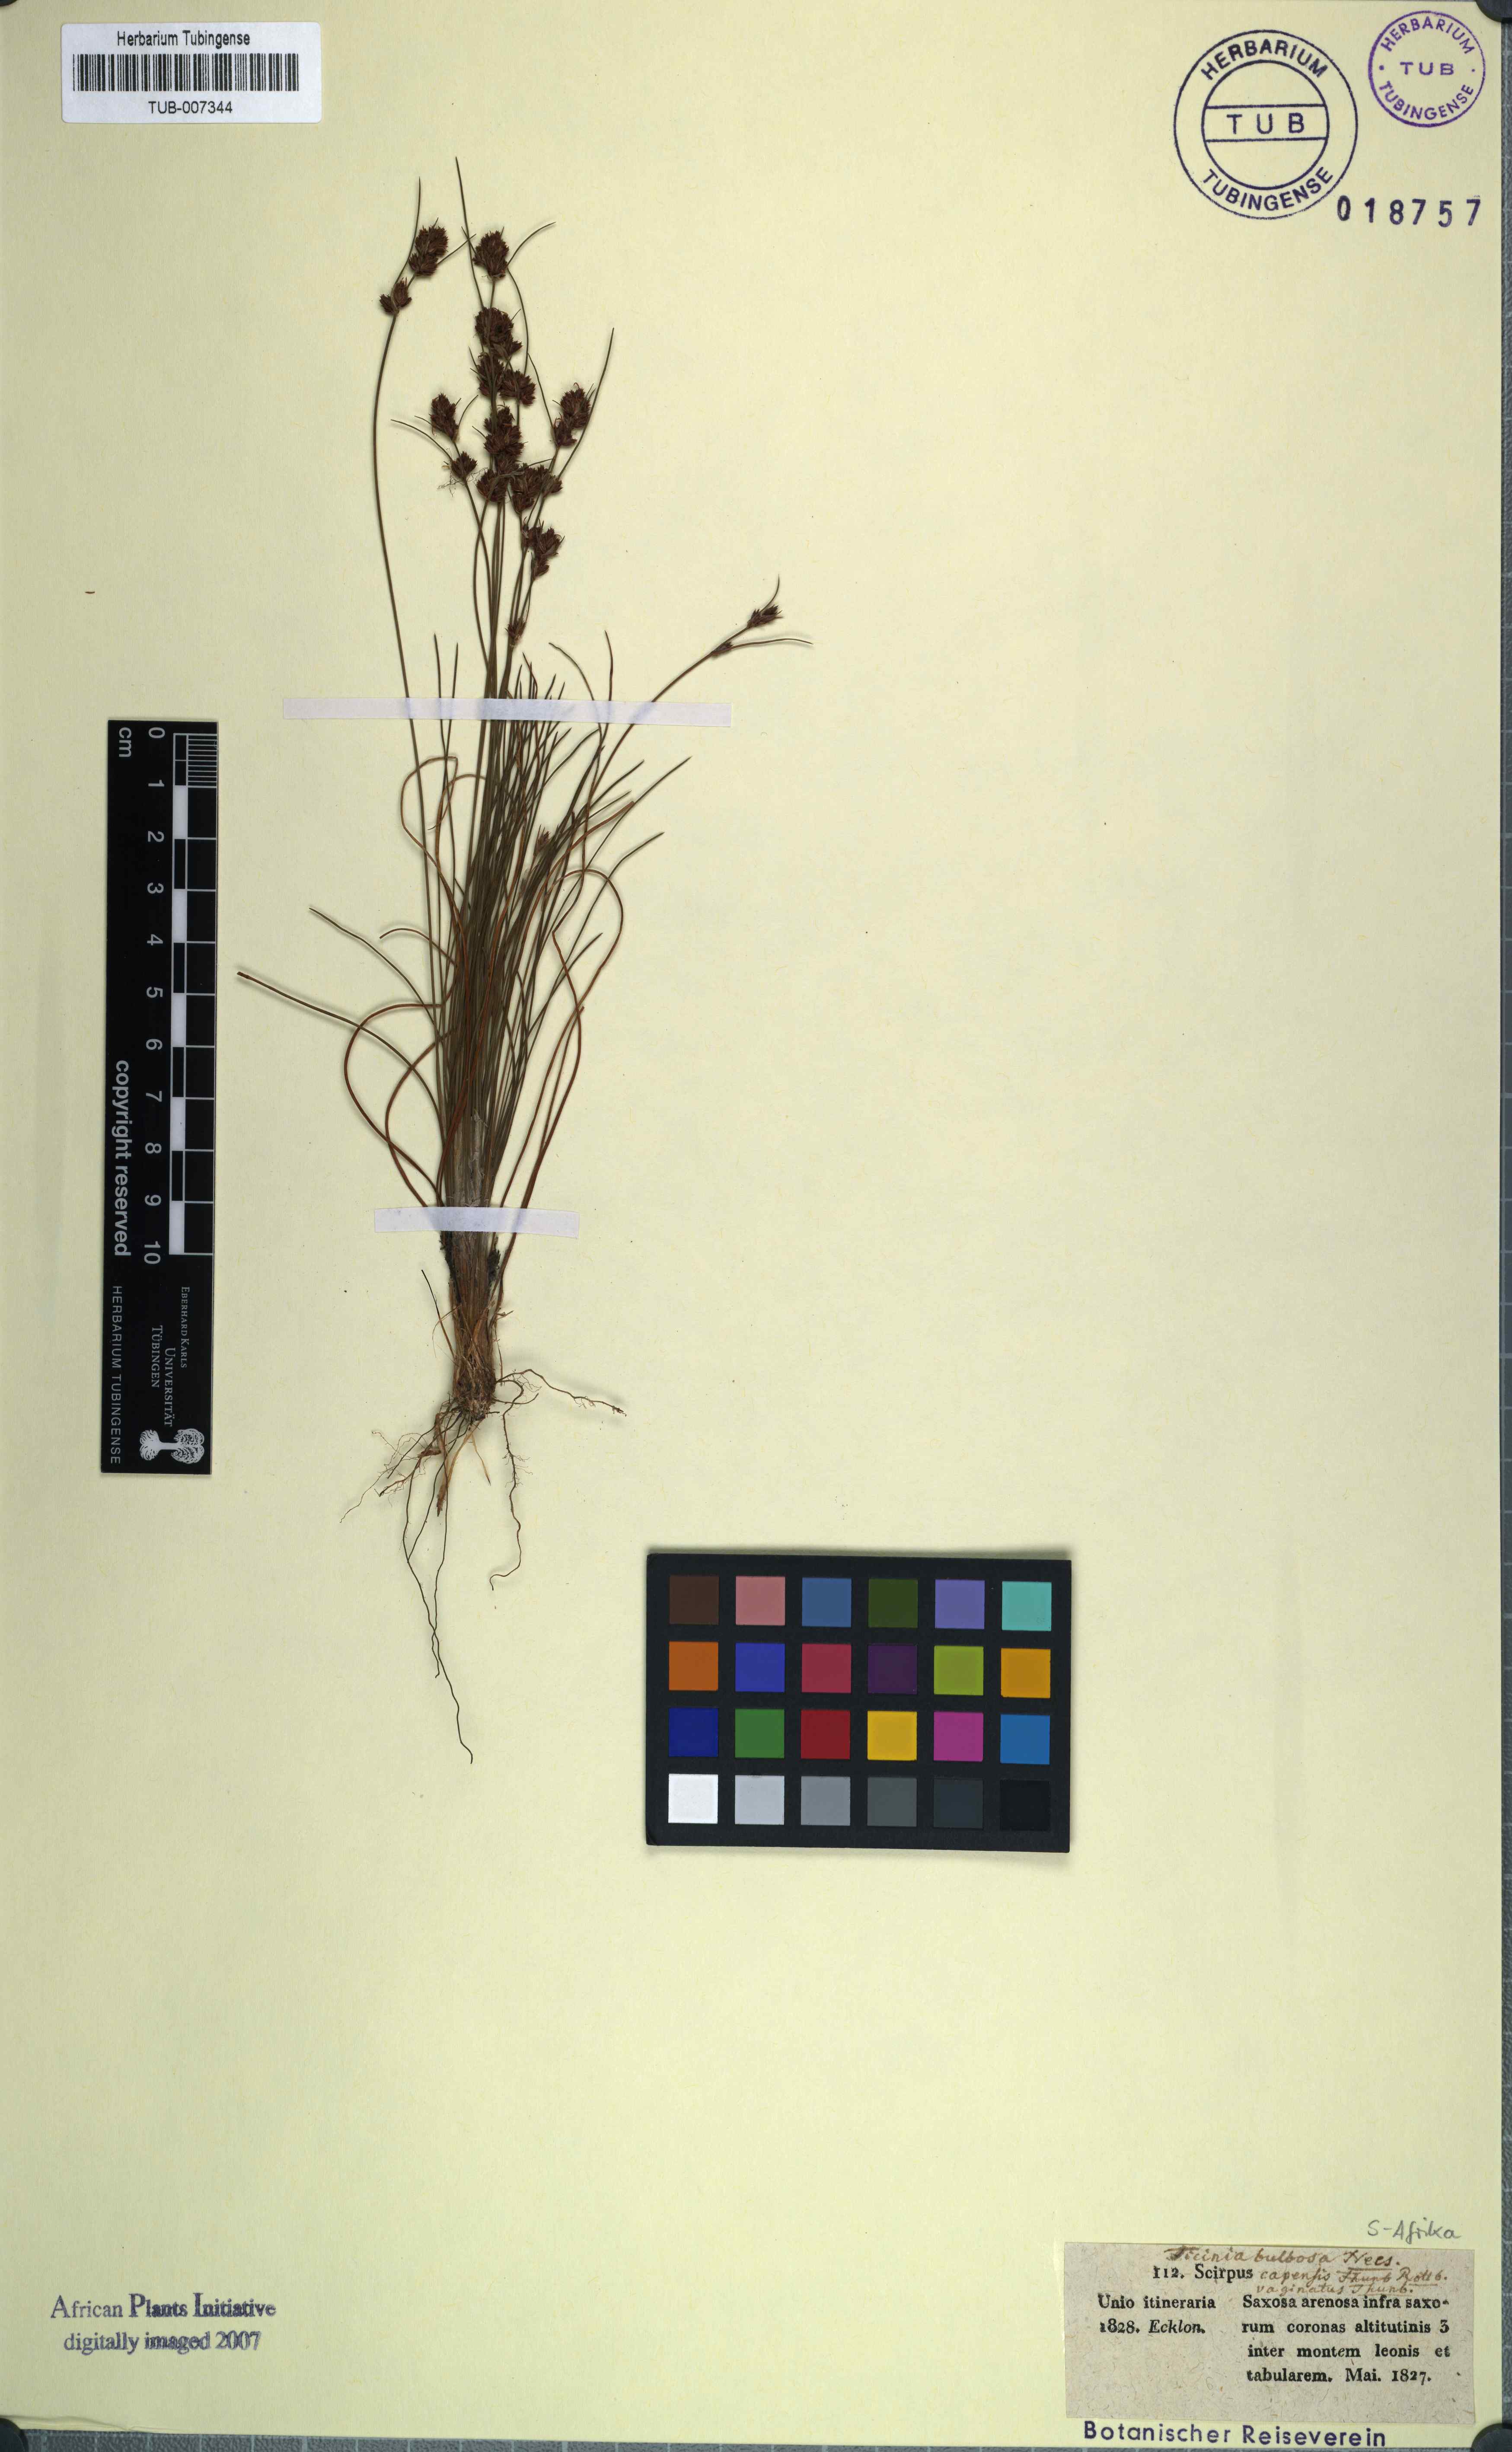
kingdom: Plantae
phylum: Tracheophyta
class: Liliopsida
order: Poales
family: Cyperaceae
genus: Ficinia
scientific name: Ficinia bulbosa
